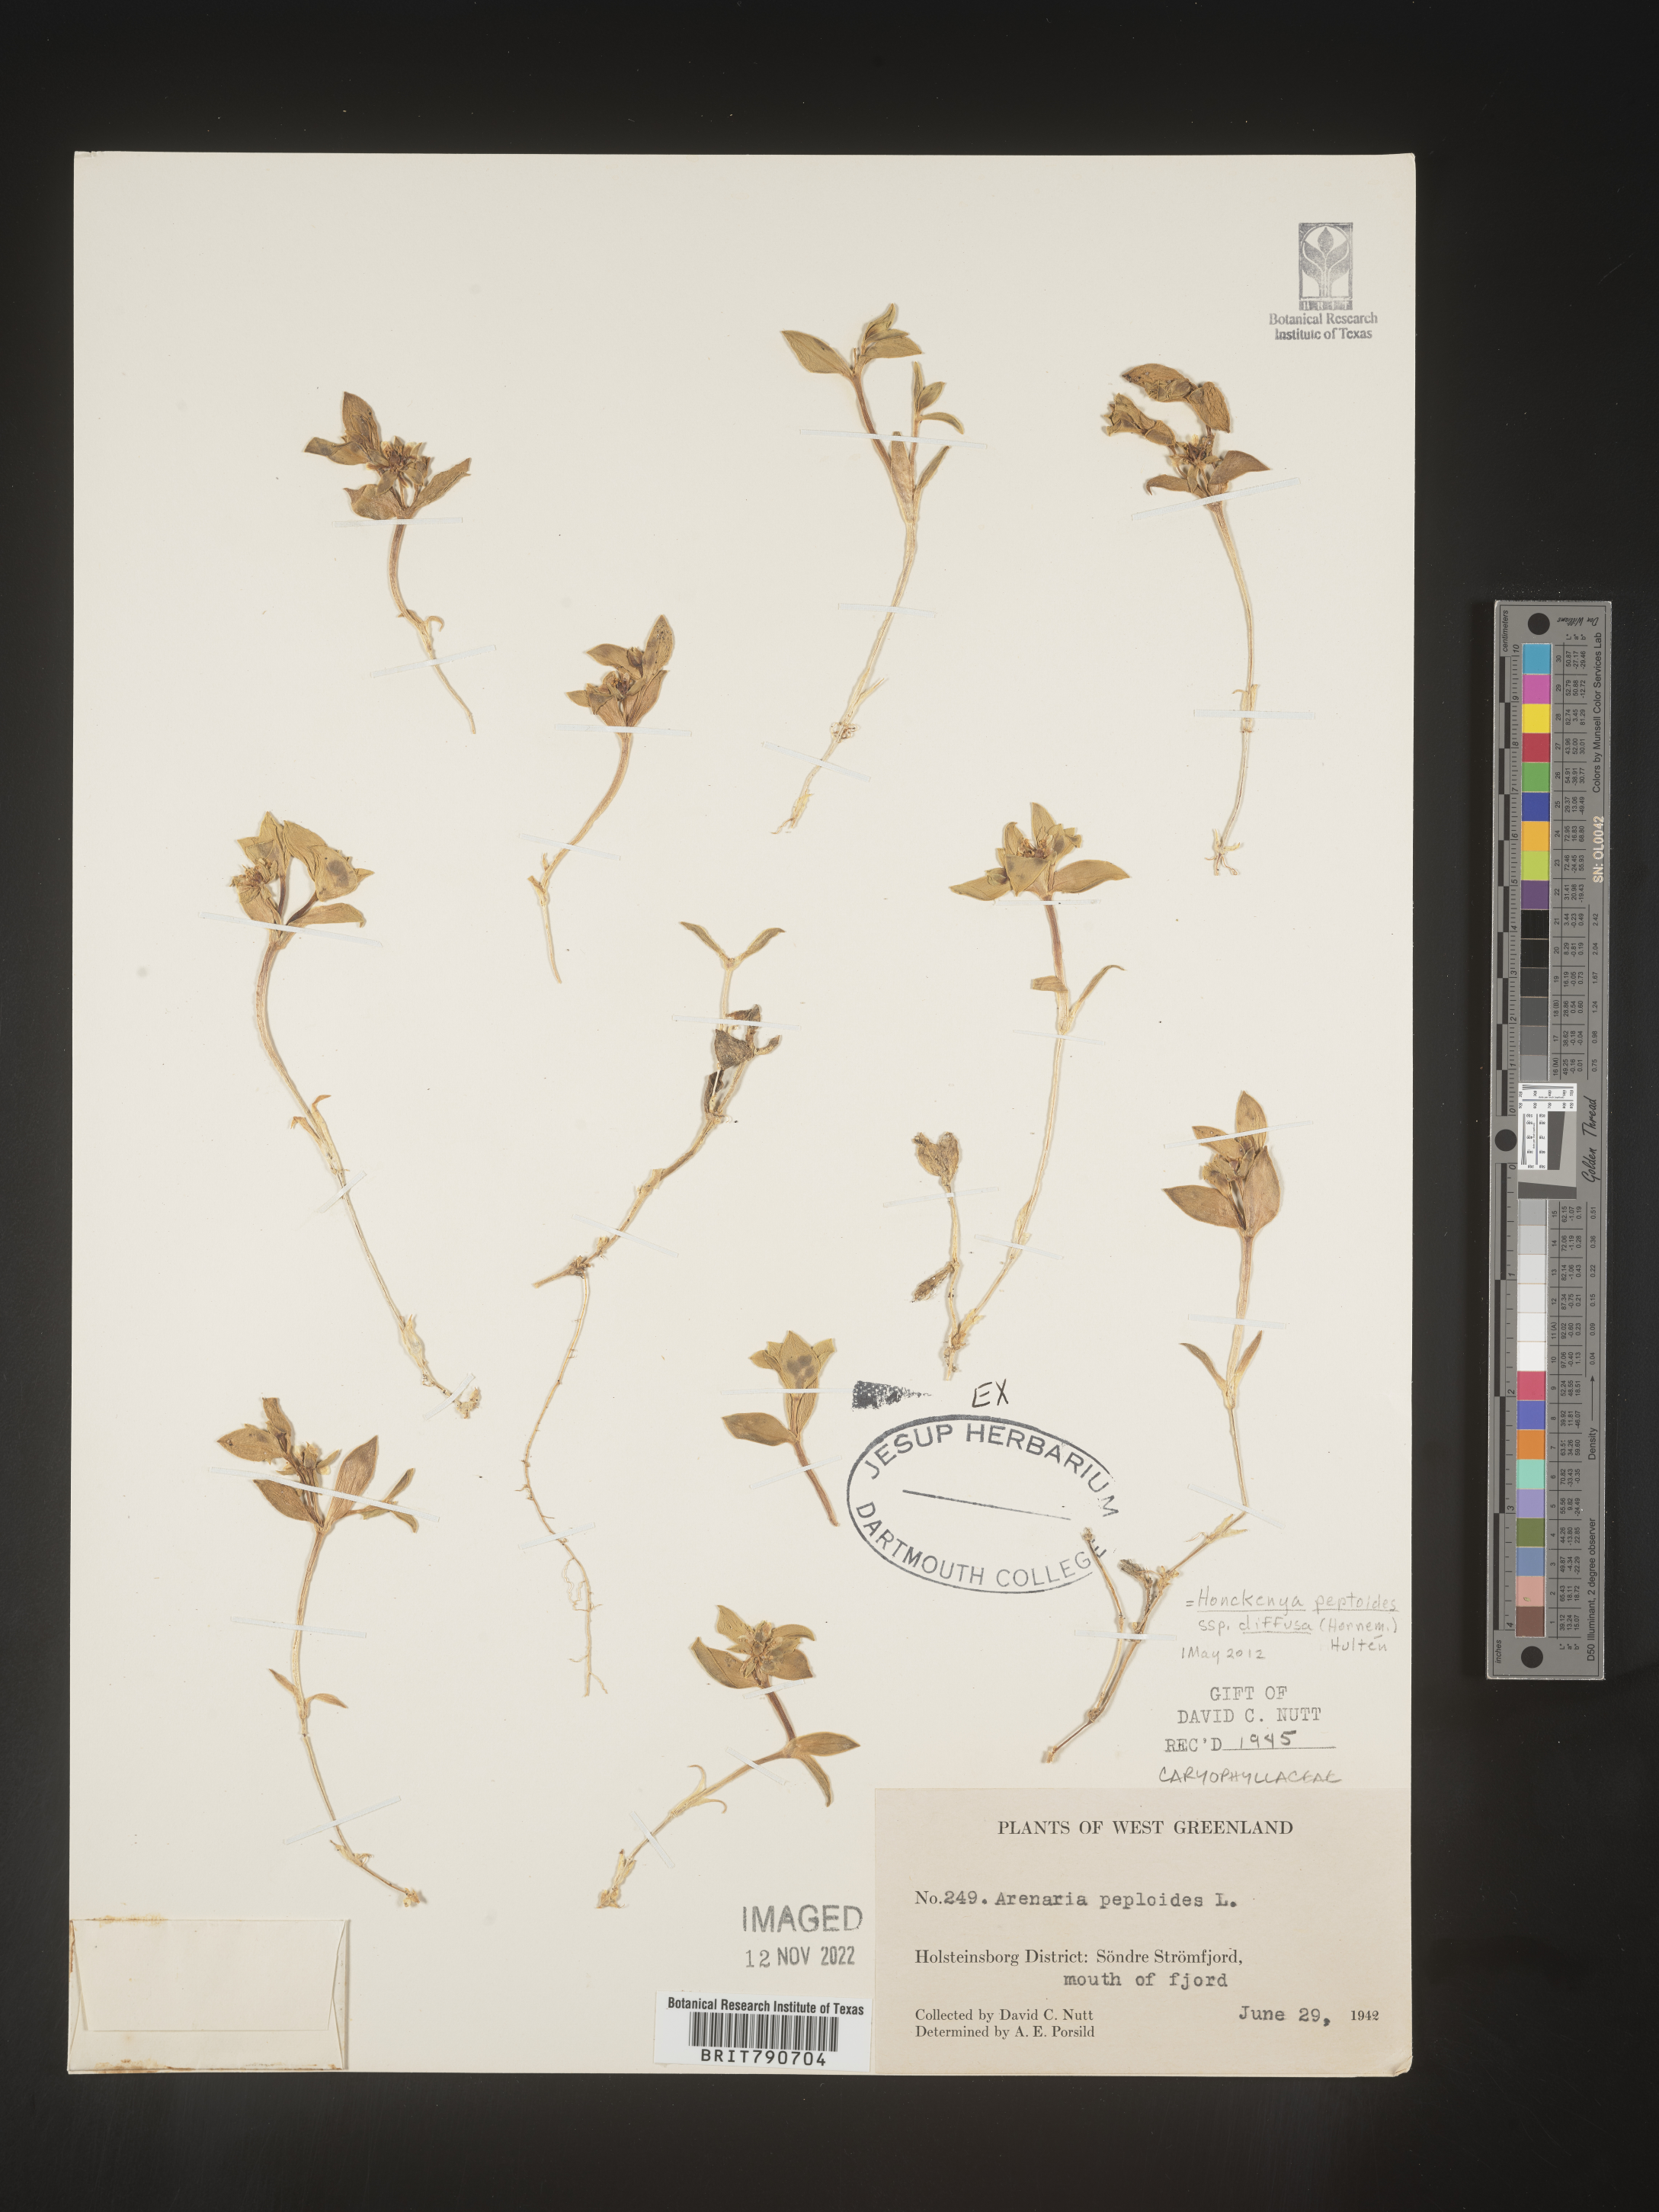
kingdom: Plantae
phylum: Tracheophyta
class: Magnoliopsida
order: Malvales
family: Malvaceae
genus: Clappertonia
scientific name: Clappertonia
